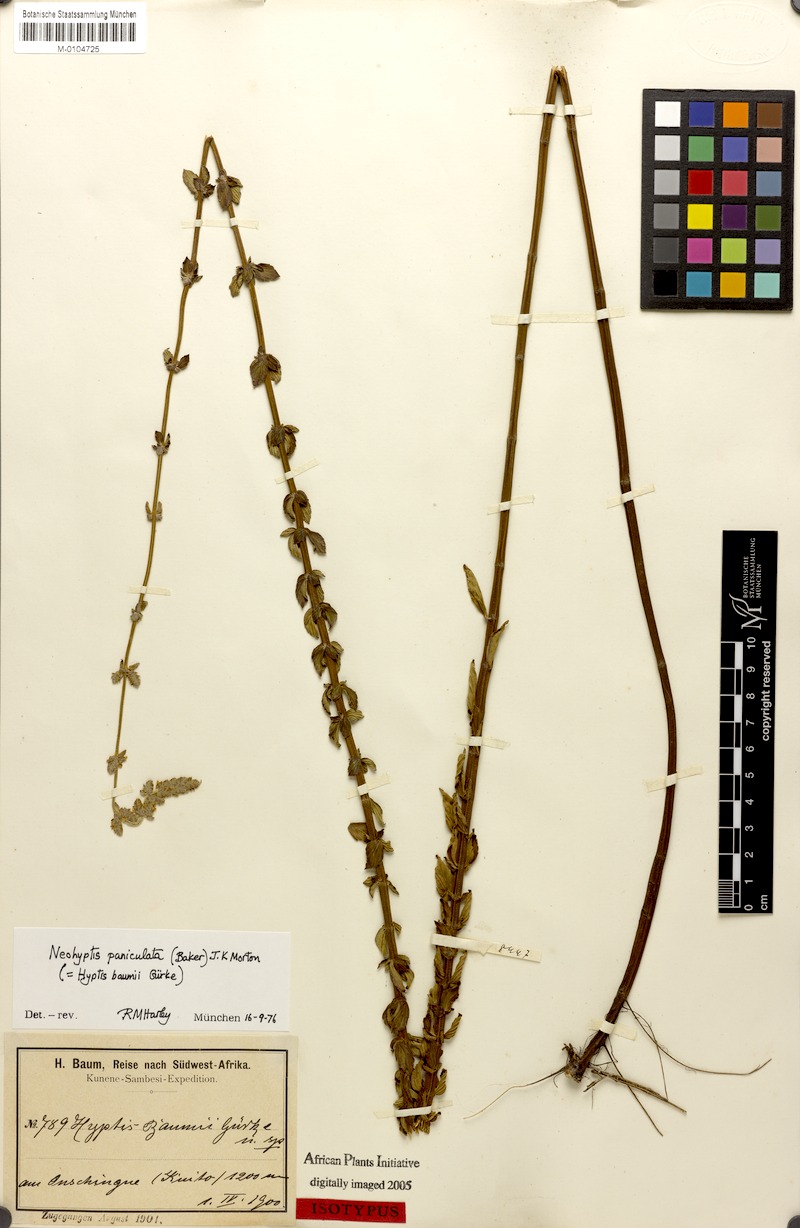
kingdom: Plantae
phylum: Tracheophyta
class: Magnoliopsida
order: Lamiales
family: Lamiaceae
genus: Coleus
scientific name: Coleus guerkei
